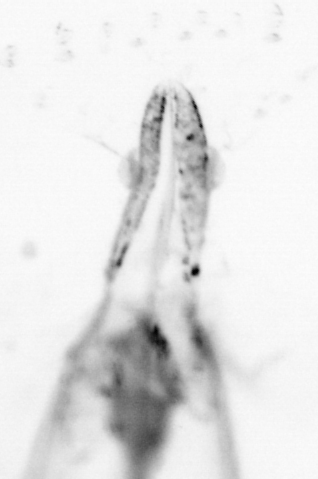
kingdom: Animalia
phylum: Chaetognatha
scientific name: Chaetognatha
